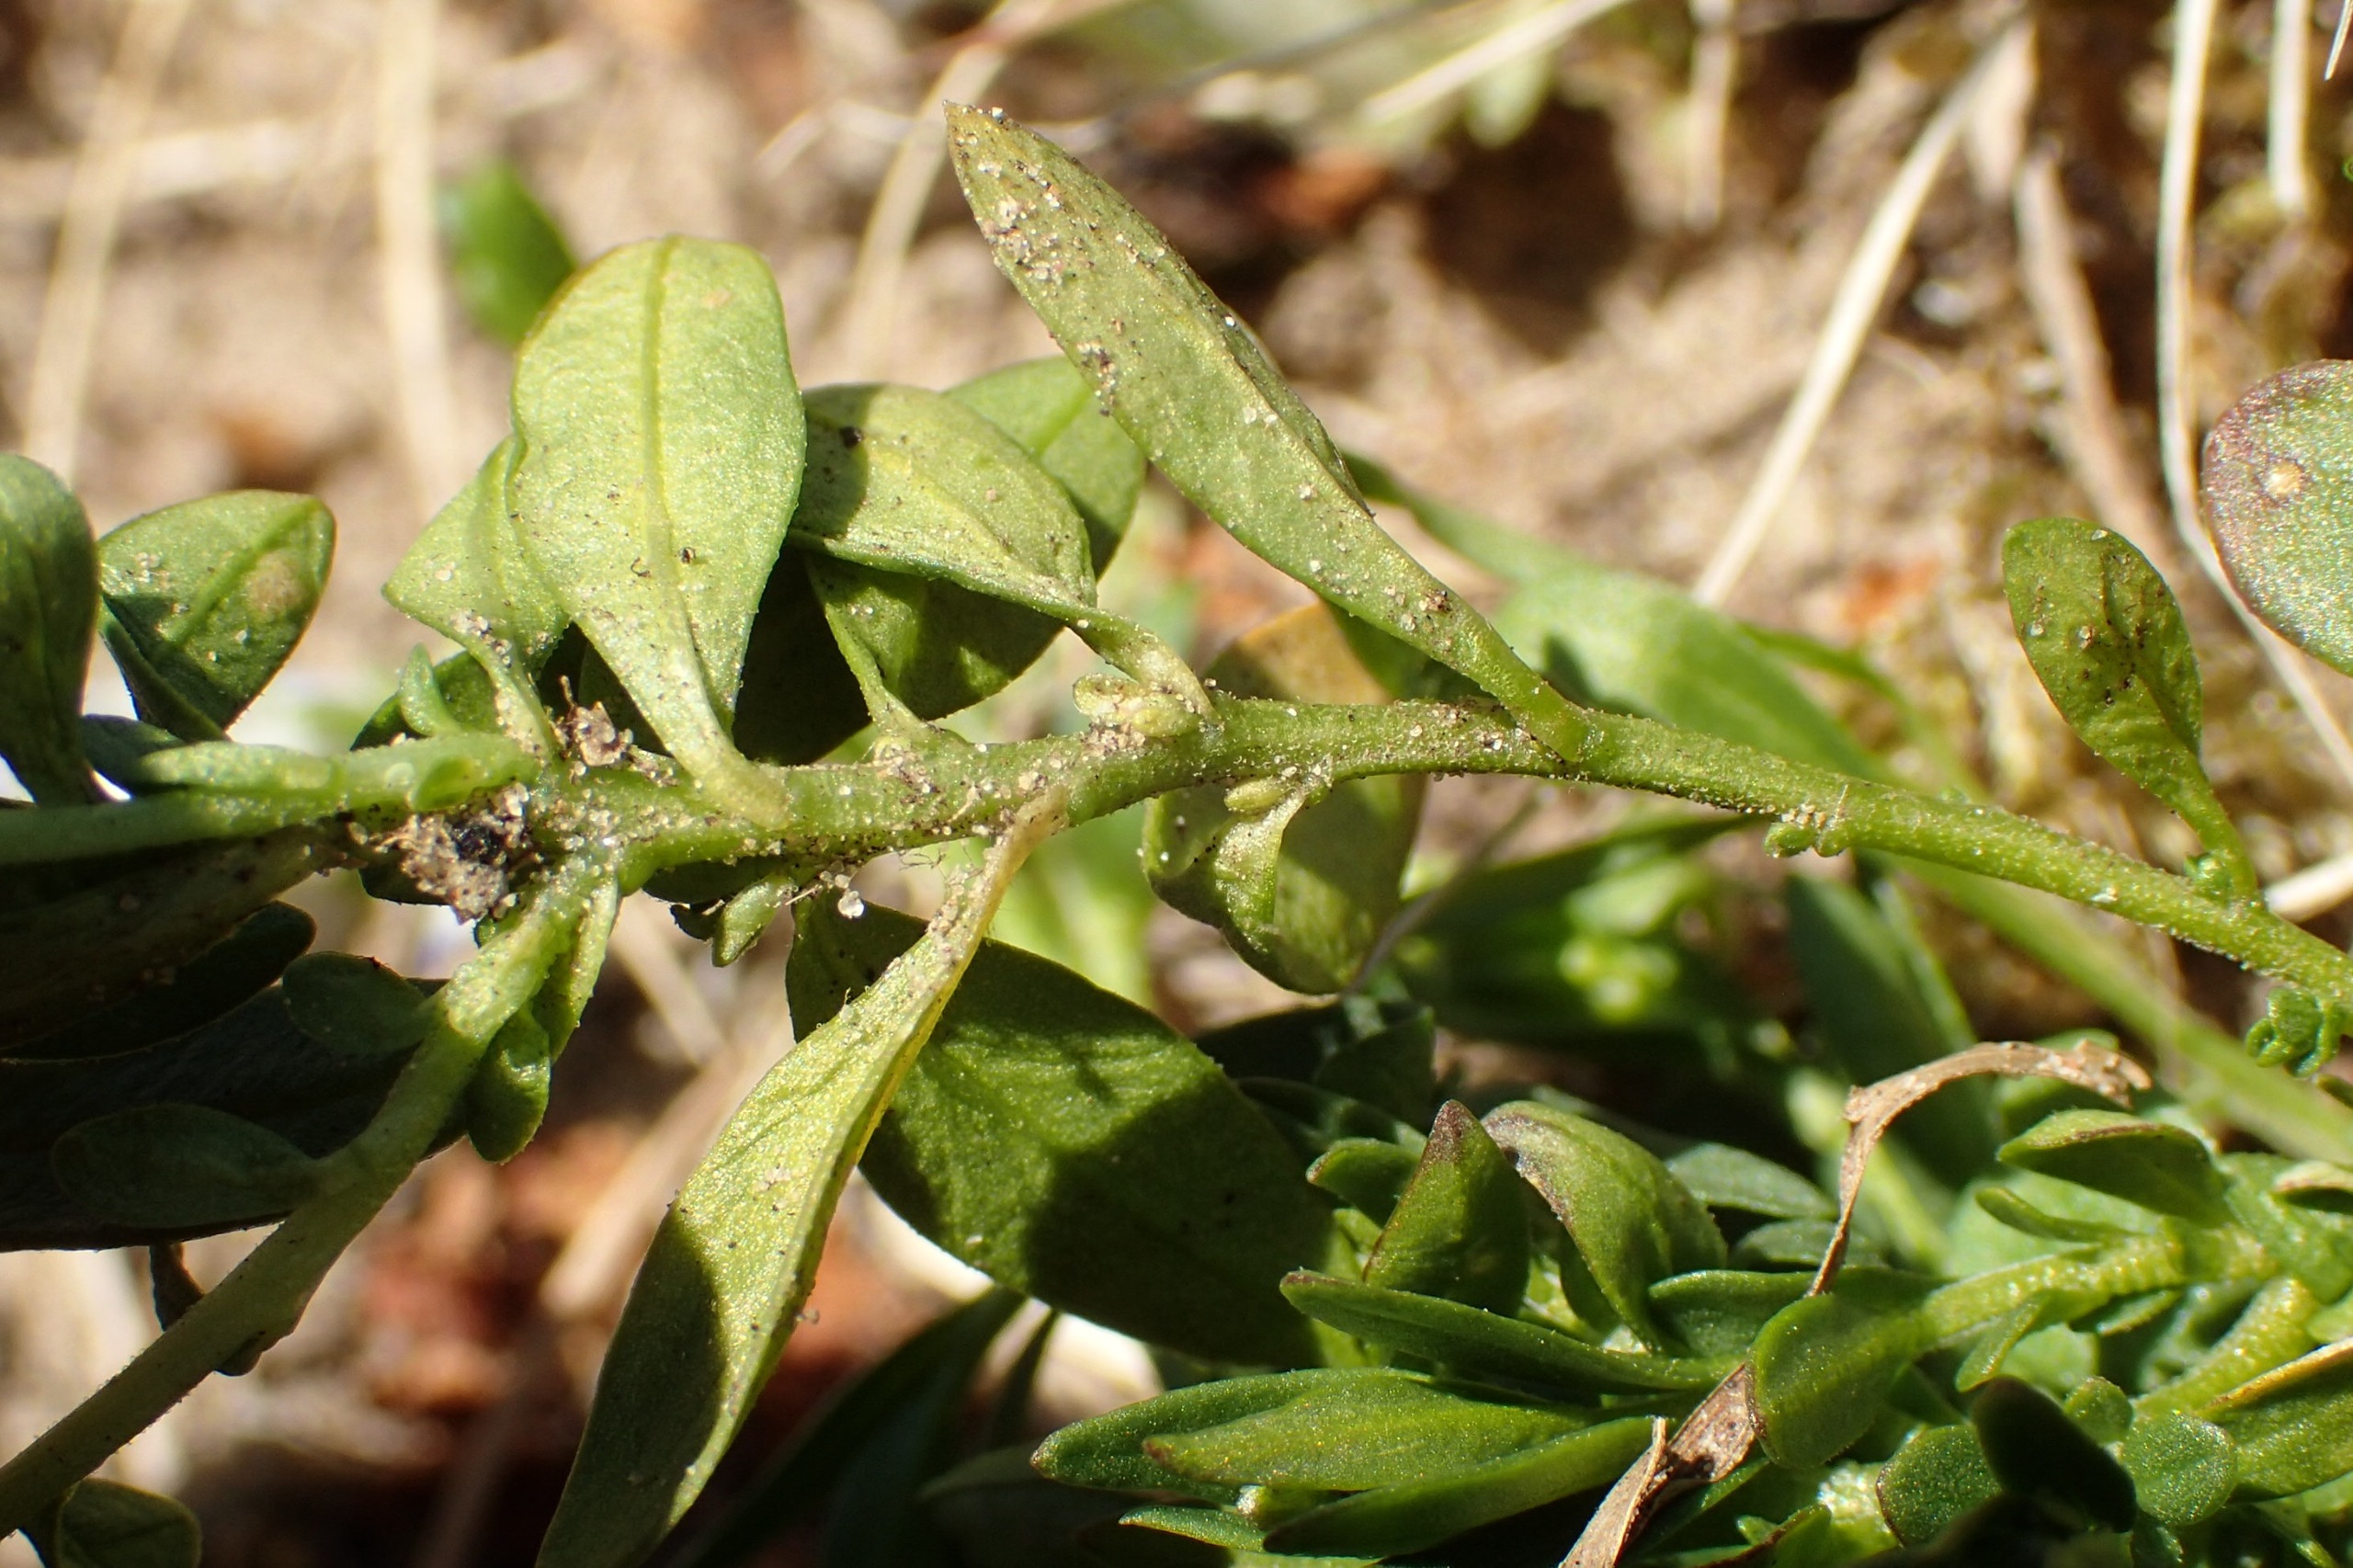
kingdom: Plantae
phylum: Tracheophyta
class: Magnoliopsida
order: Fabales
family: Polygalaceae
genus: Polygala
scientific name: Polygala vulgaris
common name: Almindelig mælkeurt
